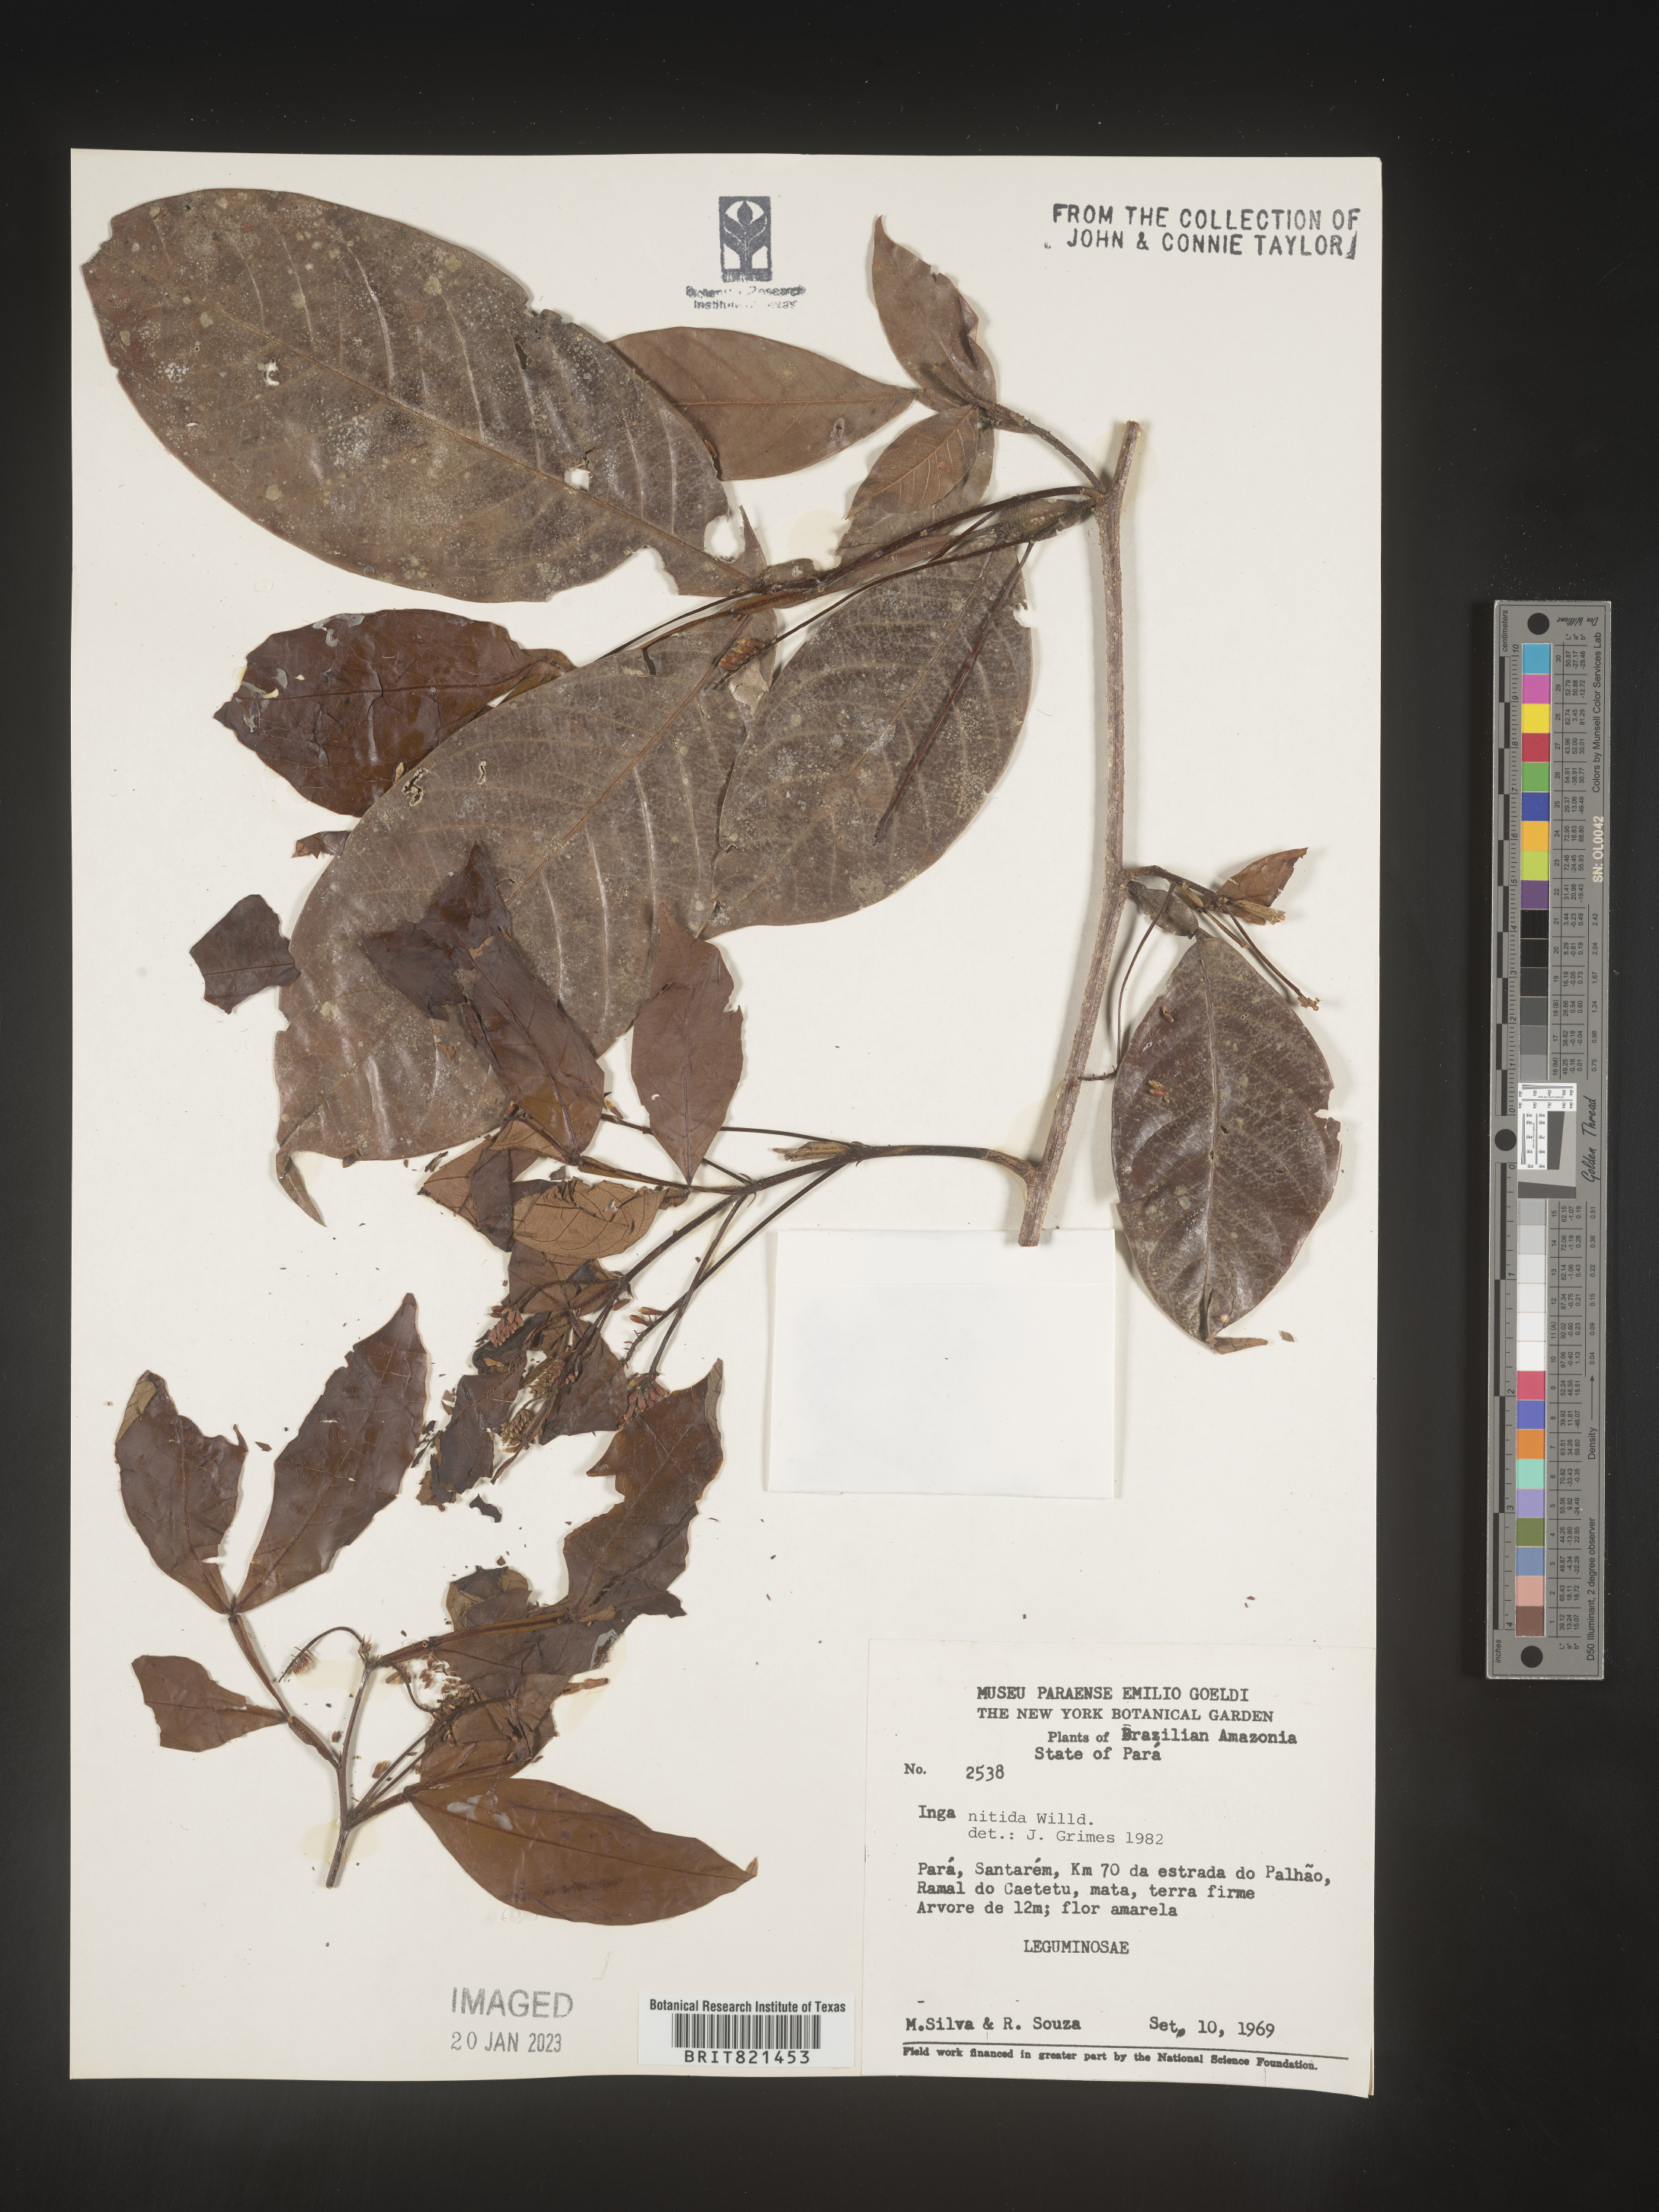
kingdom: Plantae
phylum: Tracheophyta
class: Magnoliopsida
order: Fabales
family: Fabaceae
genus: Inga
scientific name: Inga
